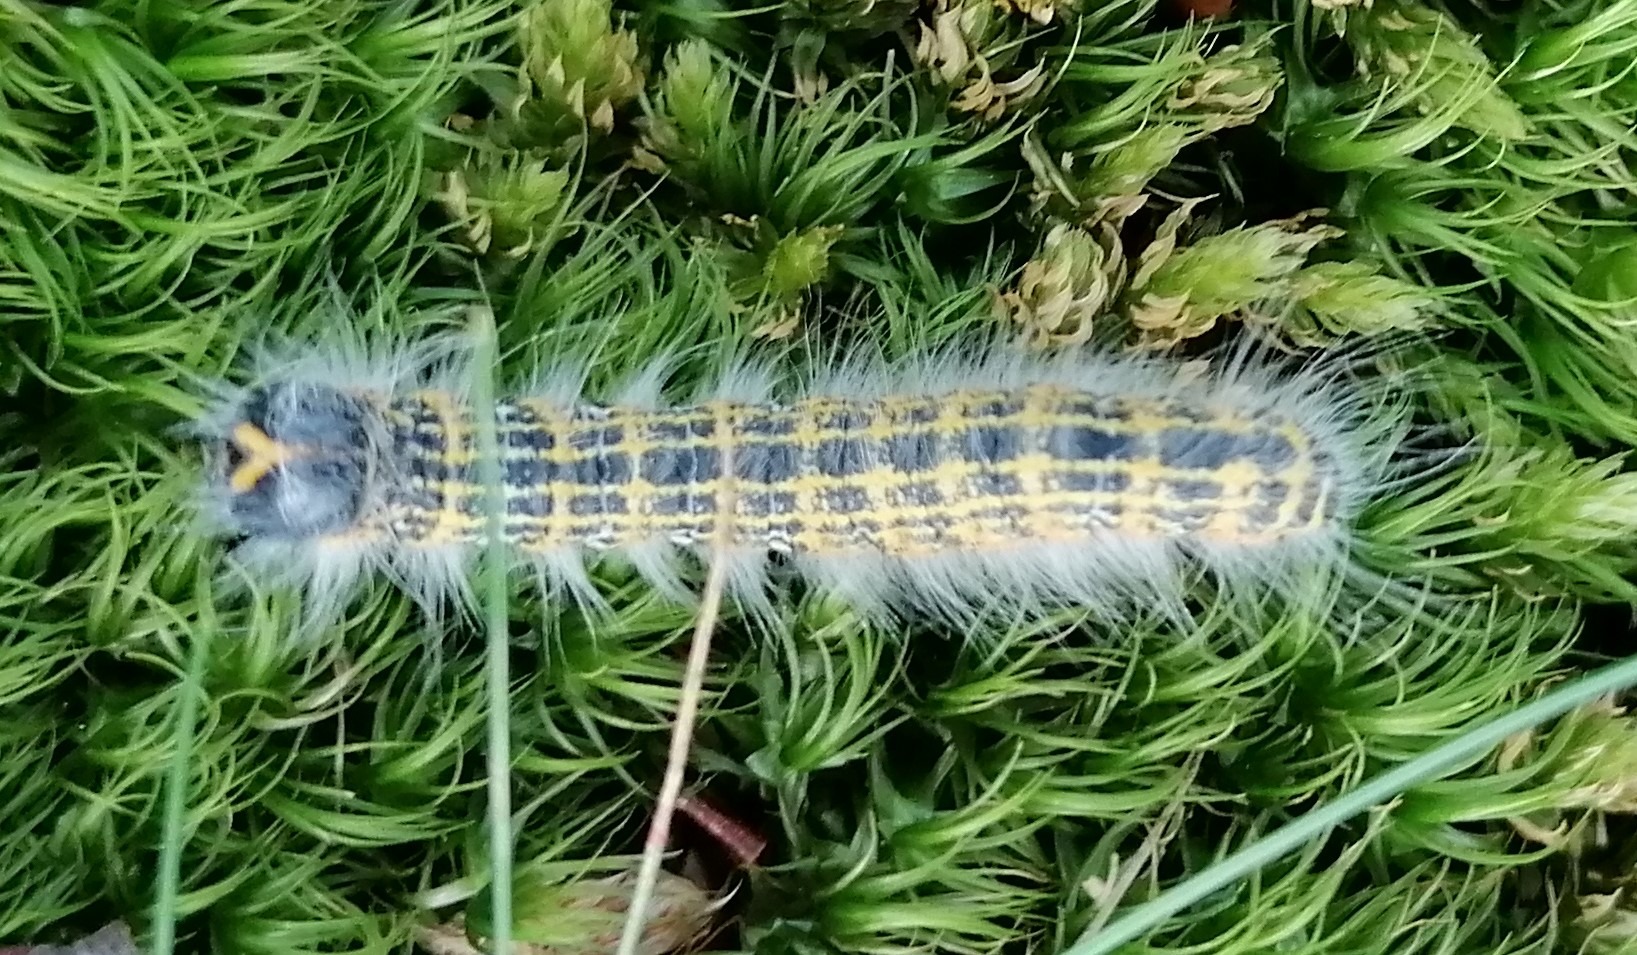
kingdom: Animalia
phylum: Arthropoda
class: Insecta
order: Lepidoptera
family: Notodontidae
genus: Phalera
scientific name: Phalera bucephala
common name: Måneplet
